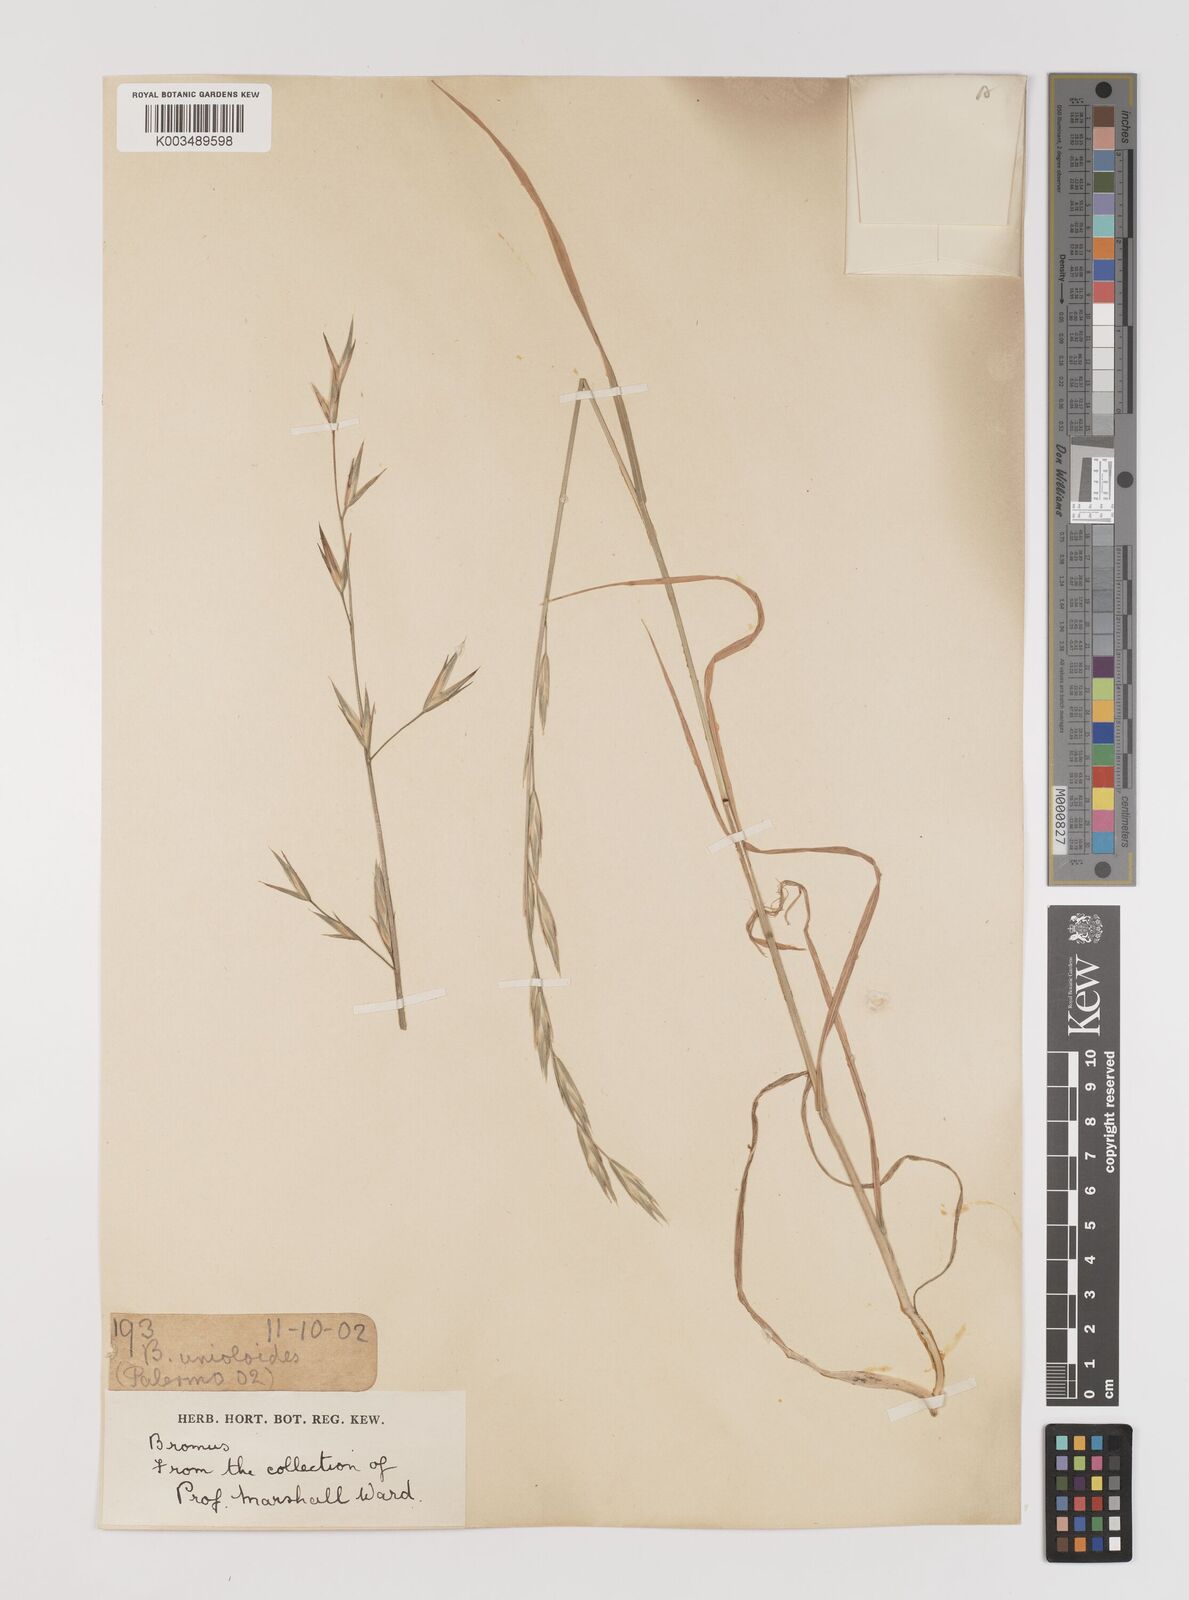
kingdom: Plantae
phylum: Tracheophyta
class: Liliopsida
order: Poales
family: Poaceae
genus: Bromus
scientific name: Bromus catharticus
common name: Rescuegrass
